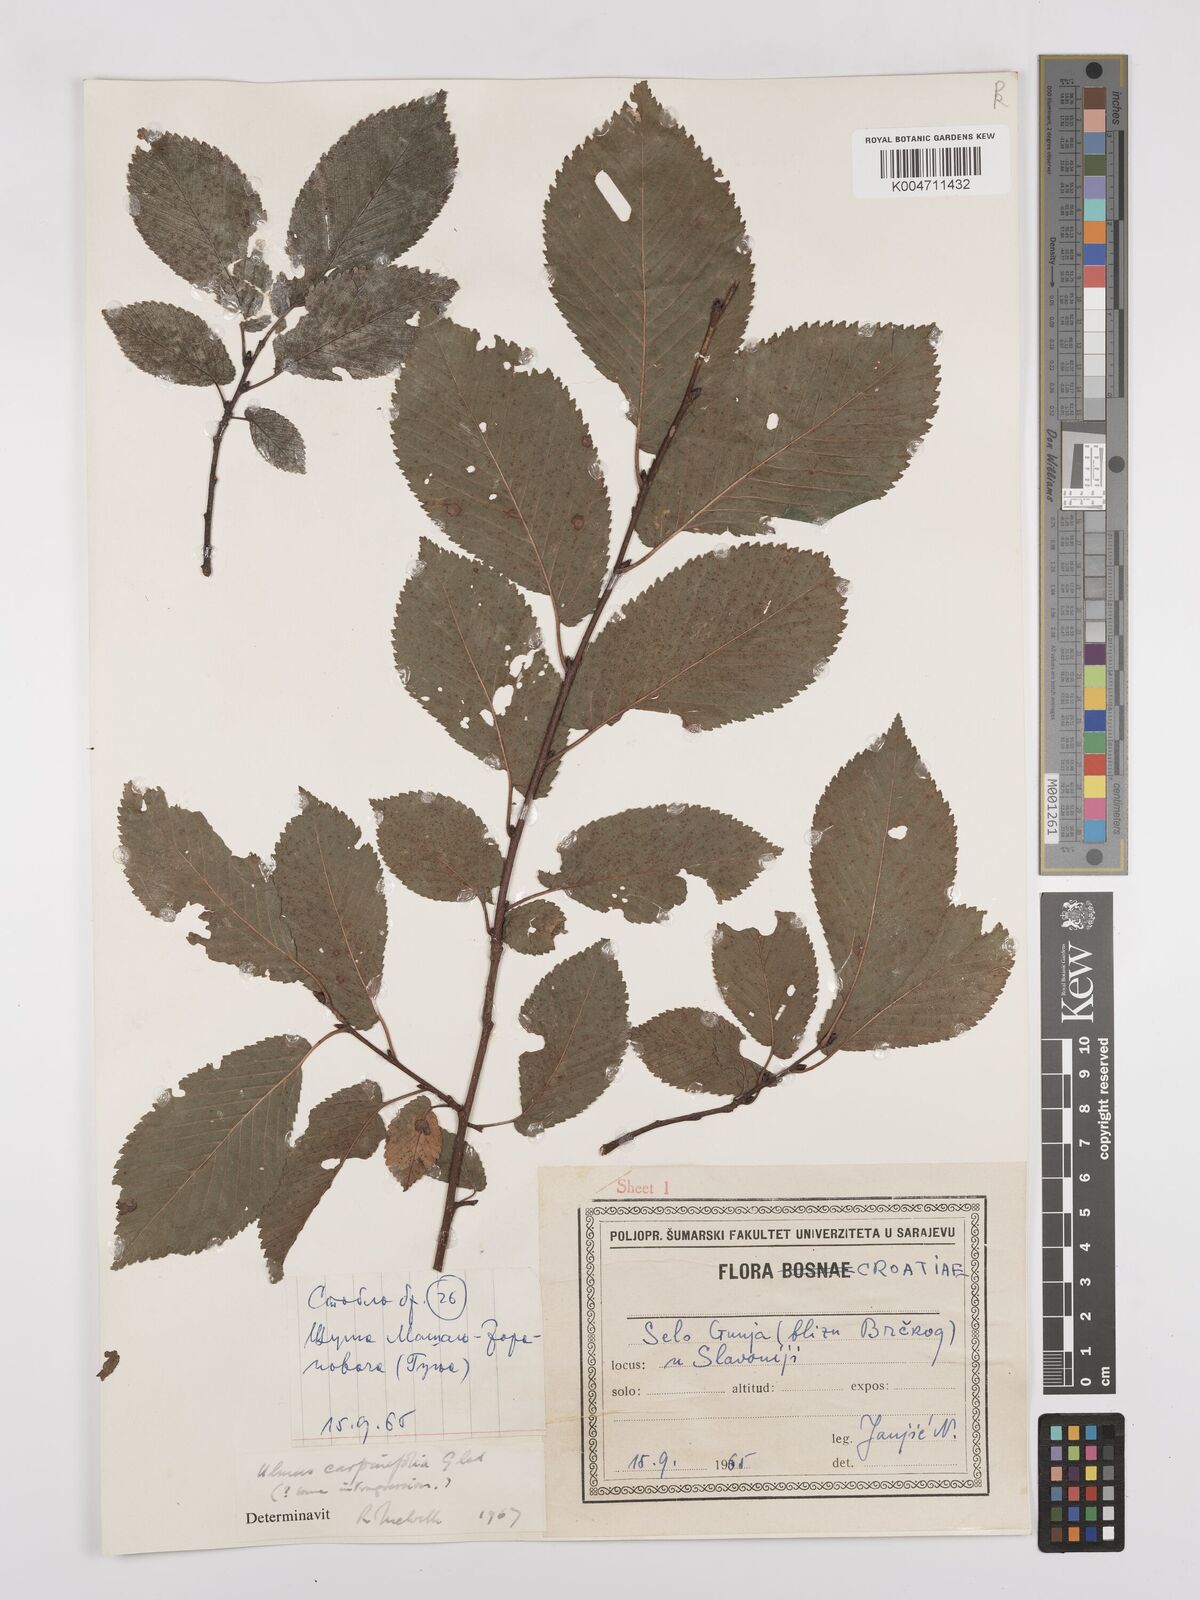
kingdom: Plantae
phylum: Tracheophyta
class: Magnoliopsida
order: Rosales
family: Ulmaceae
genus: Ulmus
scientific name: Ulmus minor
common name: Small-leaved elm
